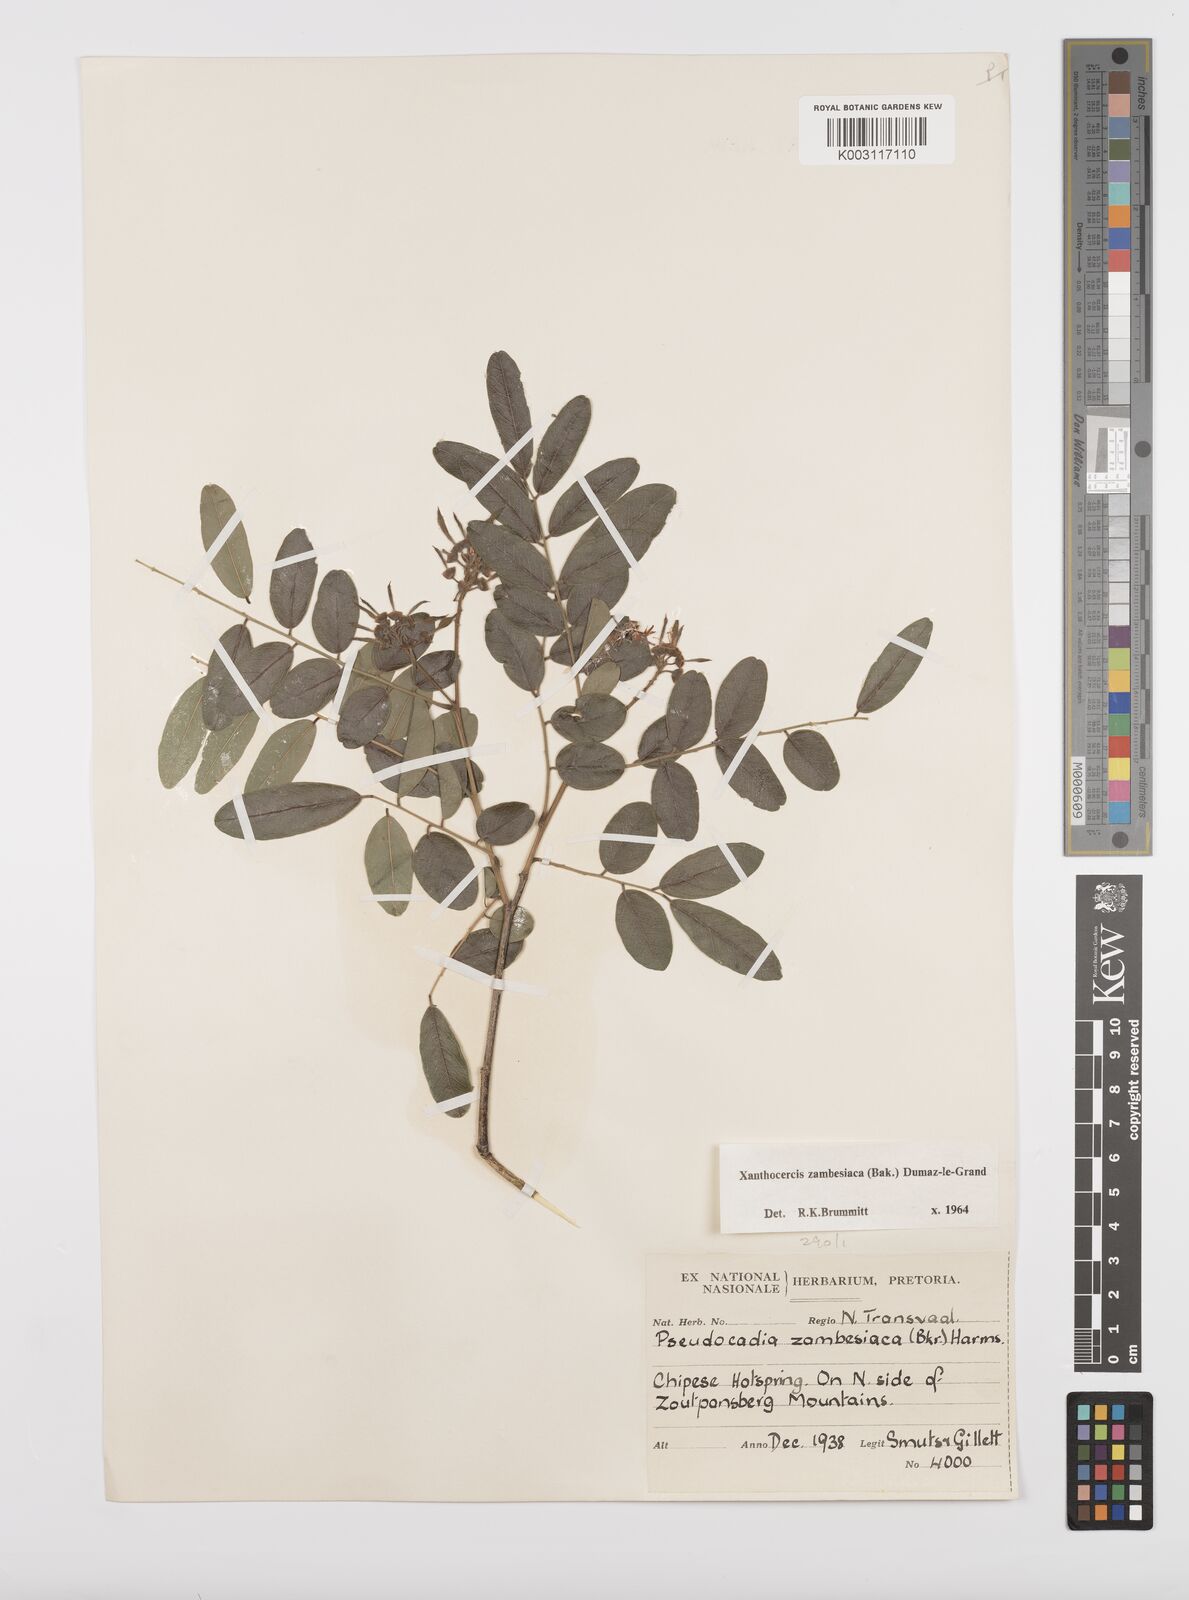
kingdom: Plantae
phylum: Tracheophyta
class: Magnoliopsida
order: Fabales
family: Fabaceae
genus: Xanthocercis
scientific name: Xanthocercis zambesiaca
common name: Nyala-tree
